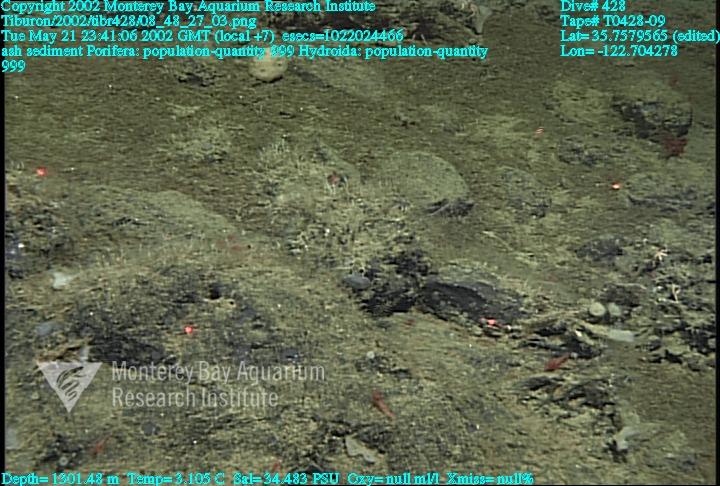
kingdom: Animalia
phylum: Porifera
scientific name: Porifera
